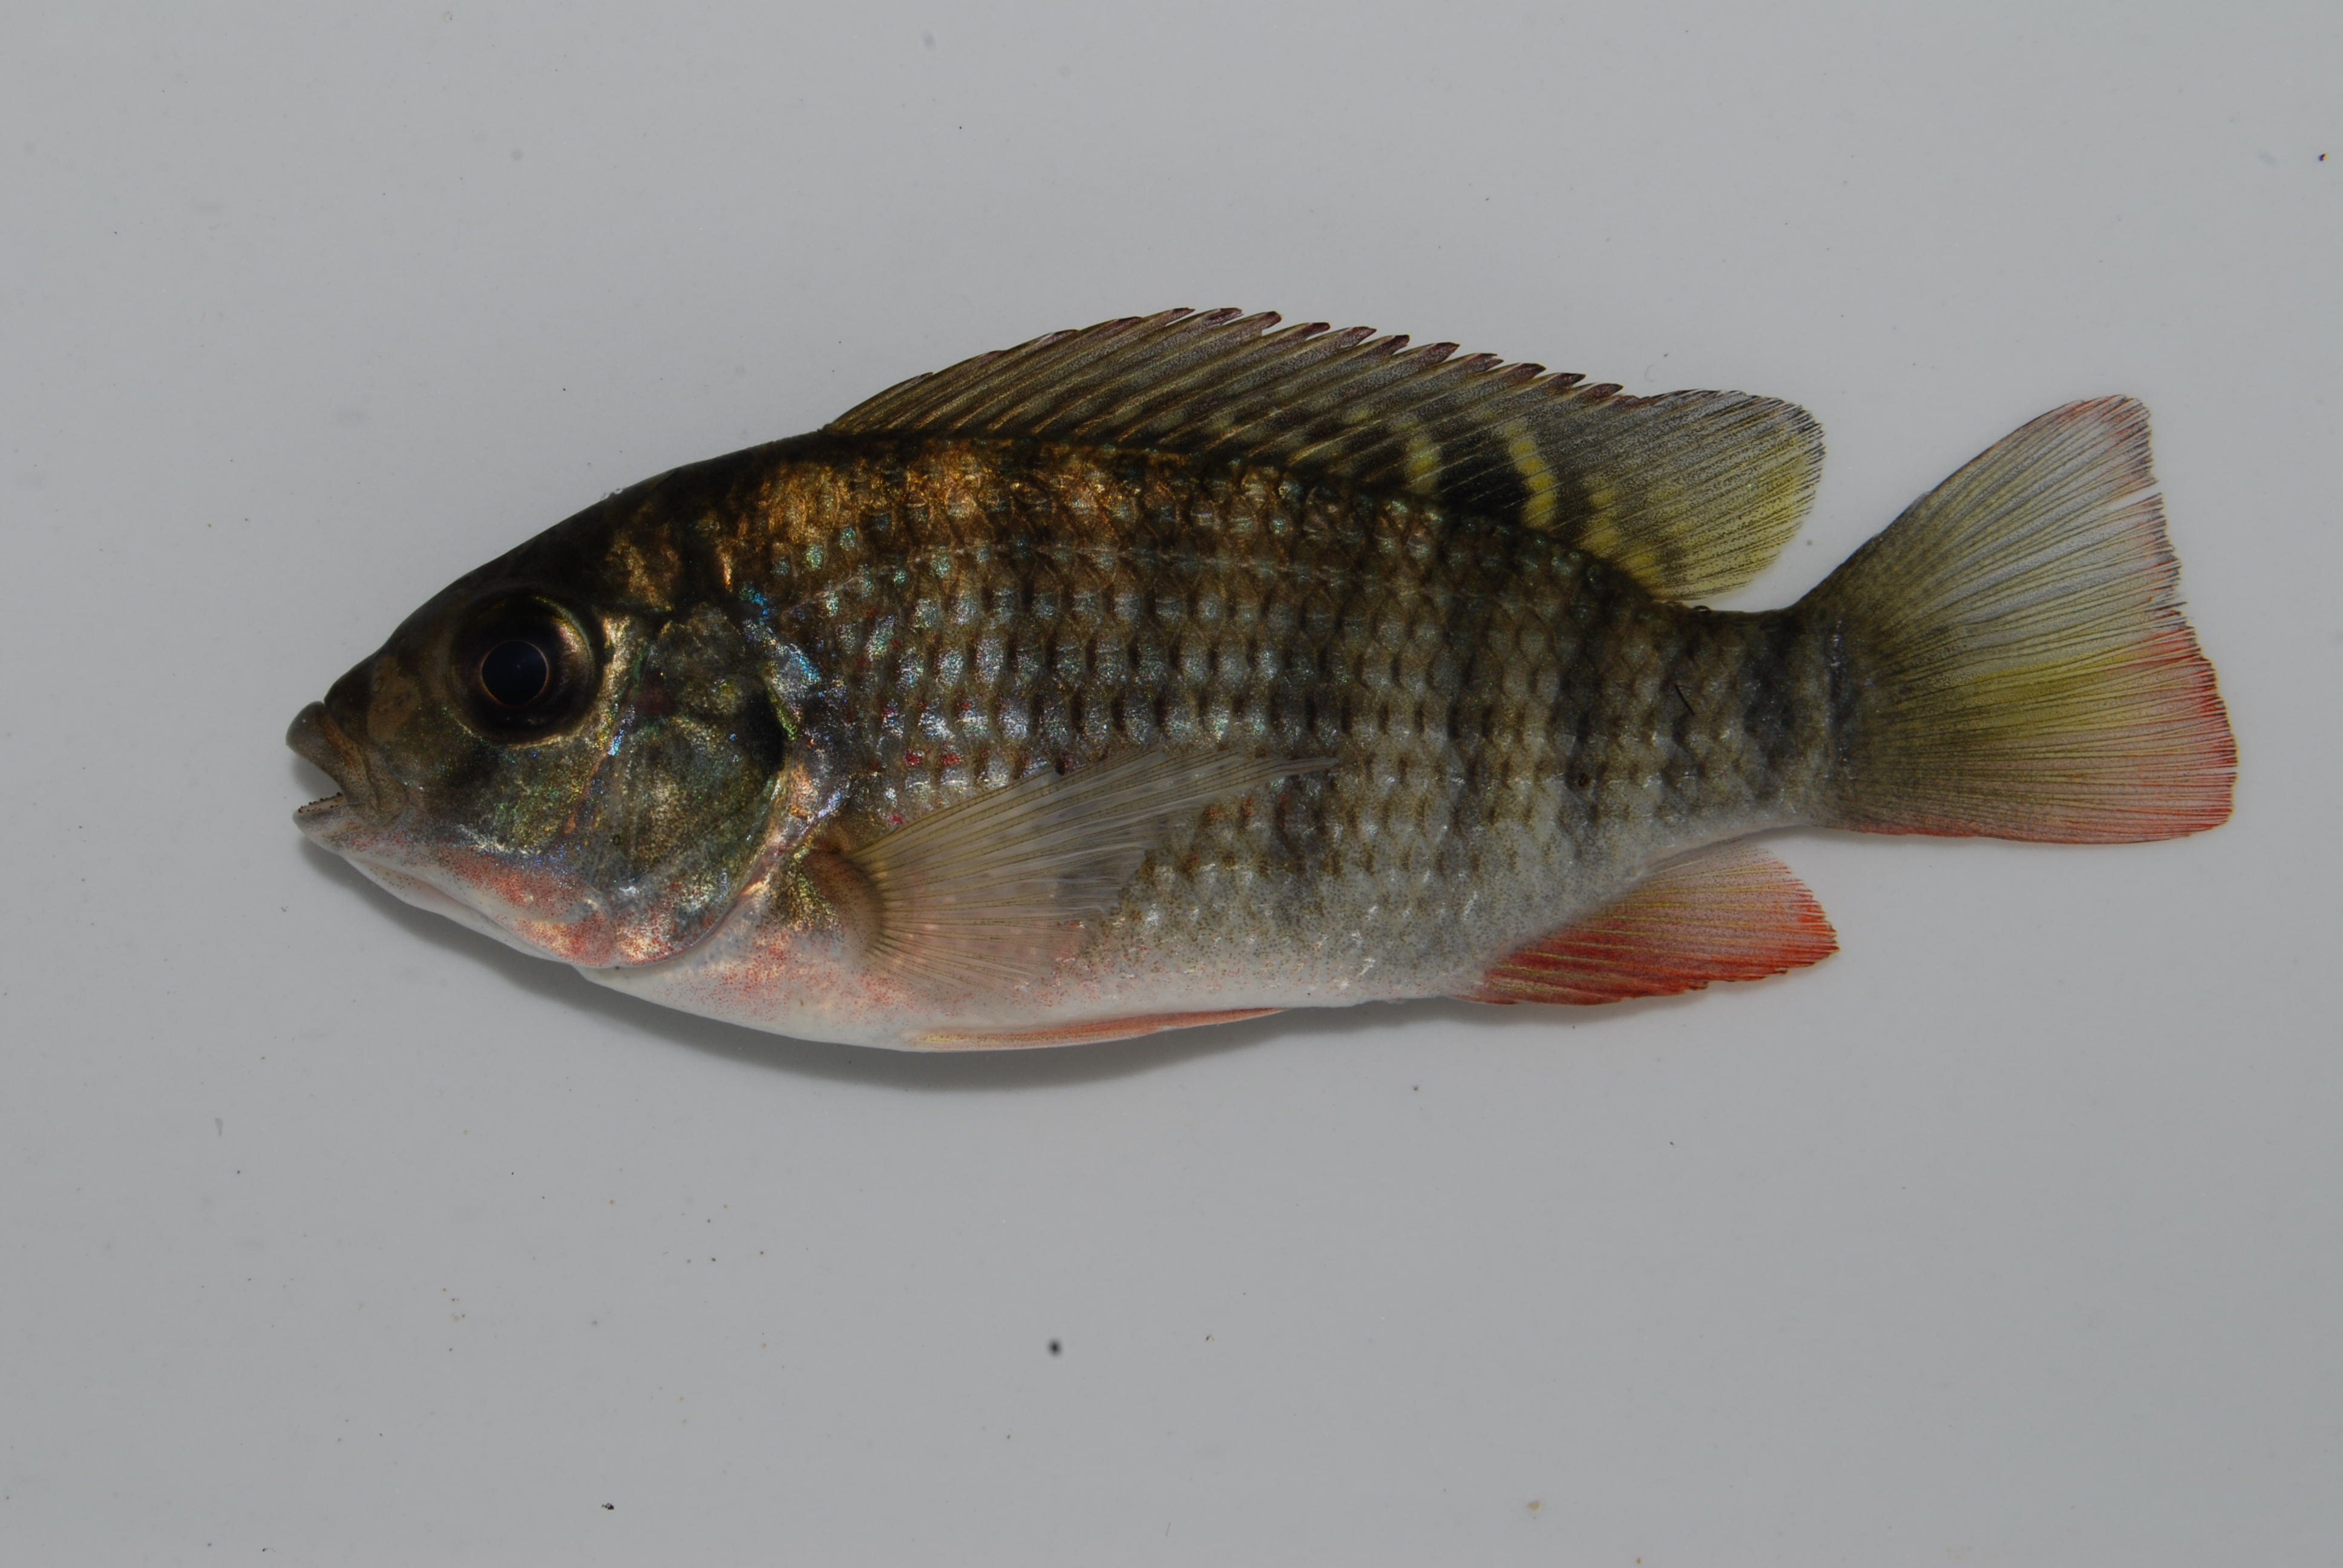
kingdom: Animalia
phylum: Chordata
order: Perciformes
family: Cichlidae
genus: Coptodon
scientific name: Coptodon rendalli
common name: Redbreast tilapia
